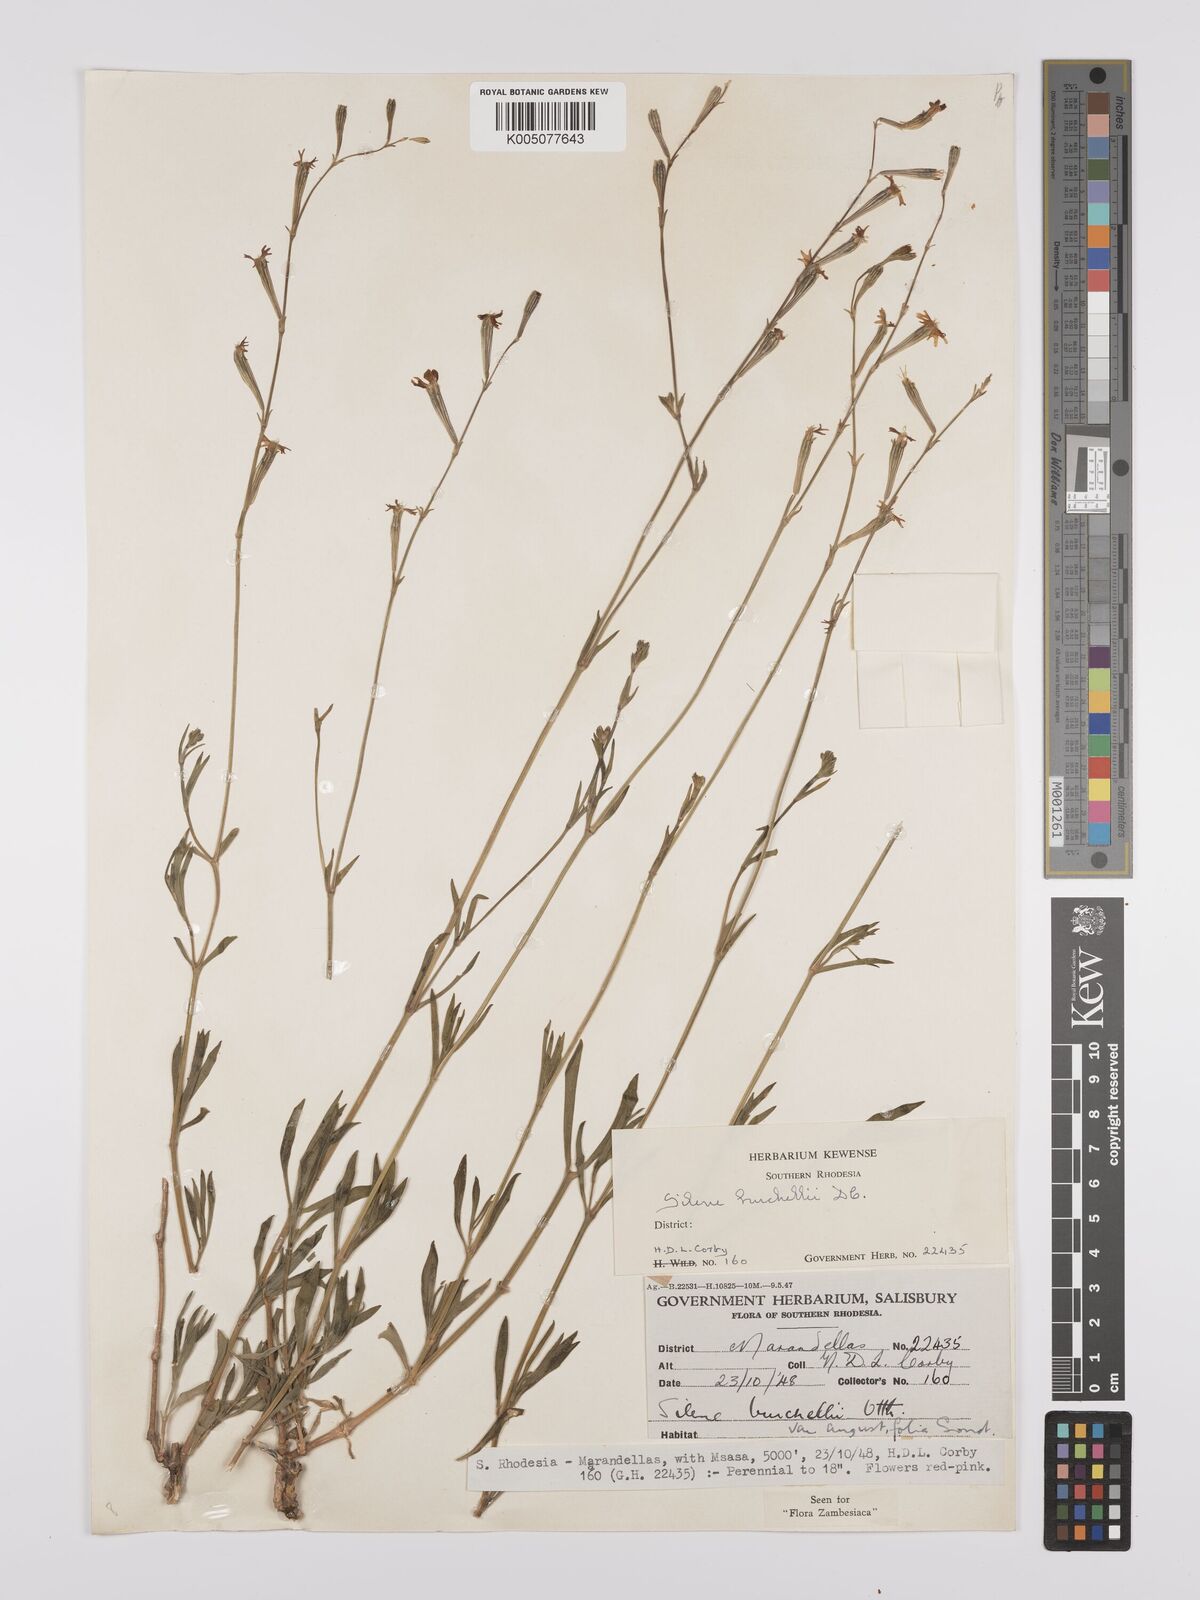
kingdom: Plantae
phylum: Tracheophyta
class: Magnoliopsida
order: Caryophyllales
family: Caryophyllaceae
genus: Silene
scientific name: Silene burchellii
